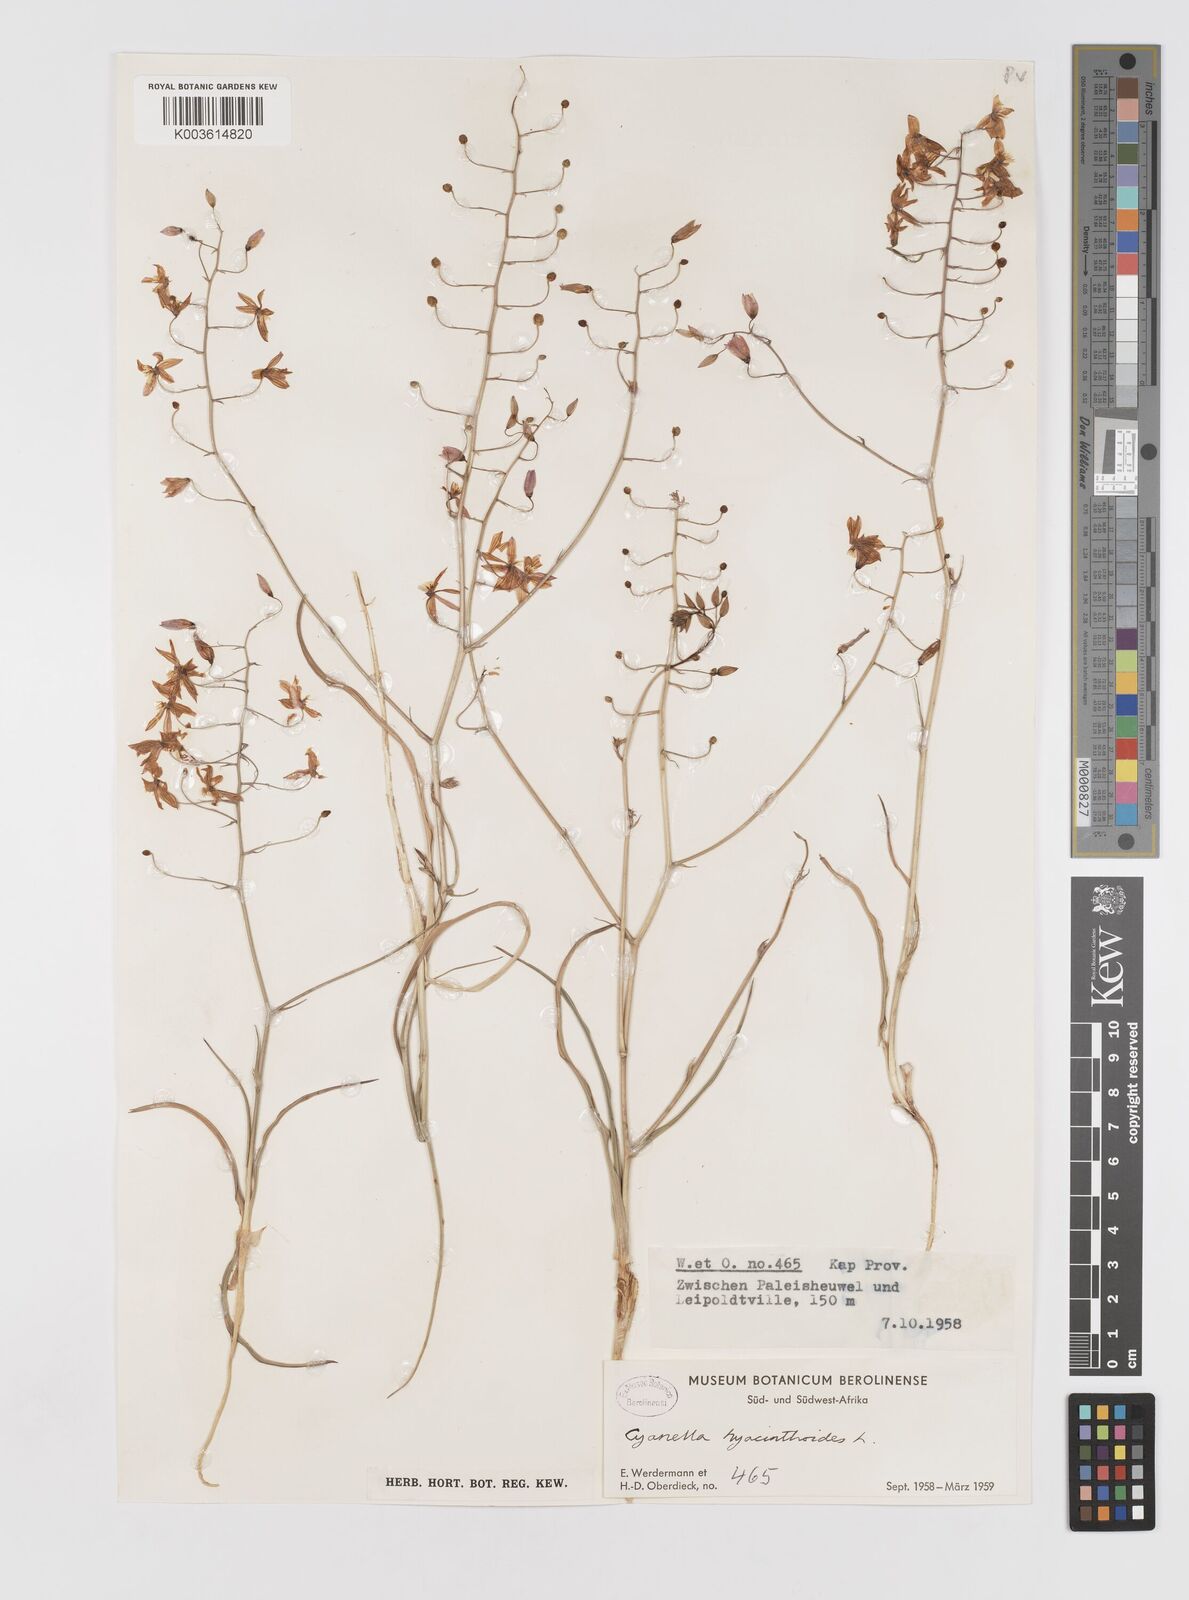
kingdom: Plantae
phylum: Tracheophyta
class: Liliopsida
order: Asparagales
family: Tecophilaeaceae
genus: Cyanella
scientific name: Cyanella hyacinthoides
